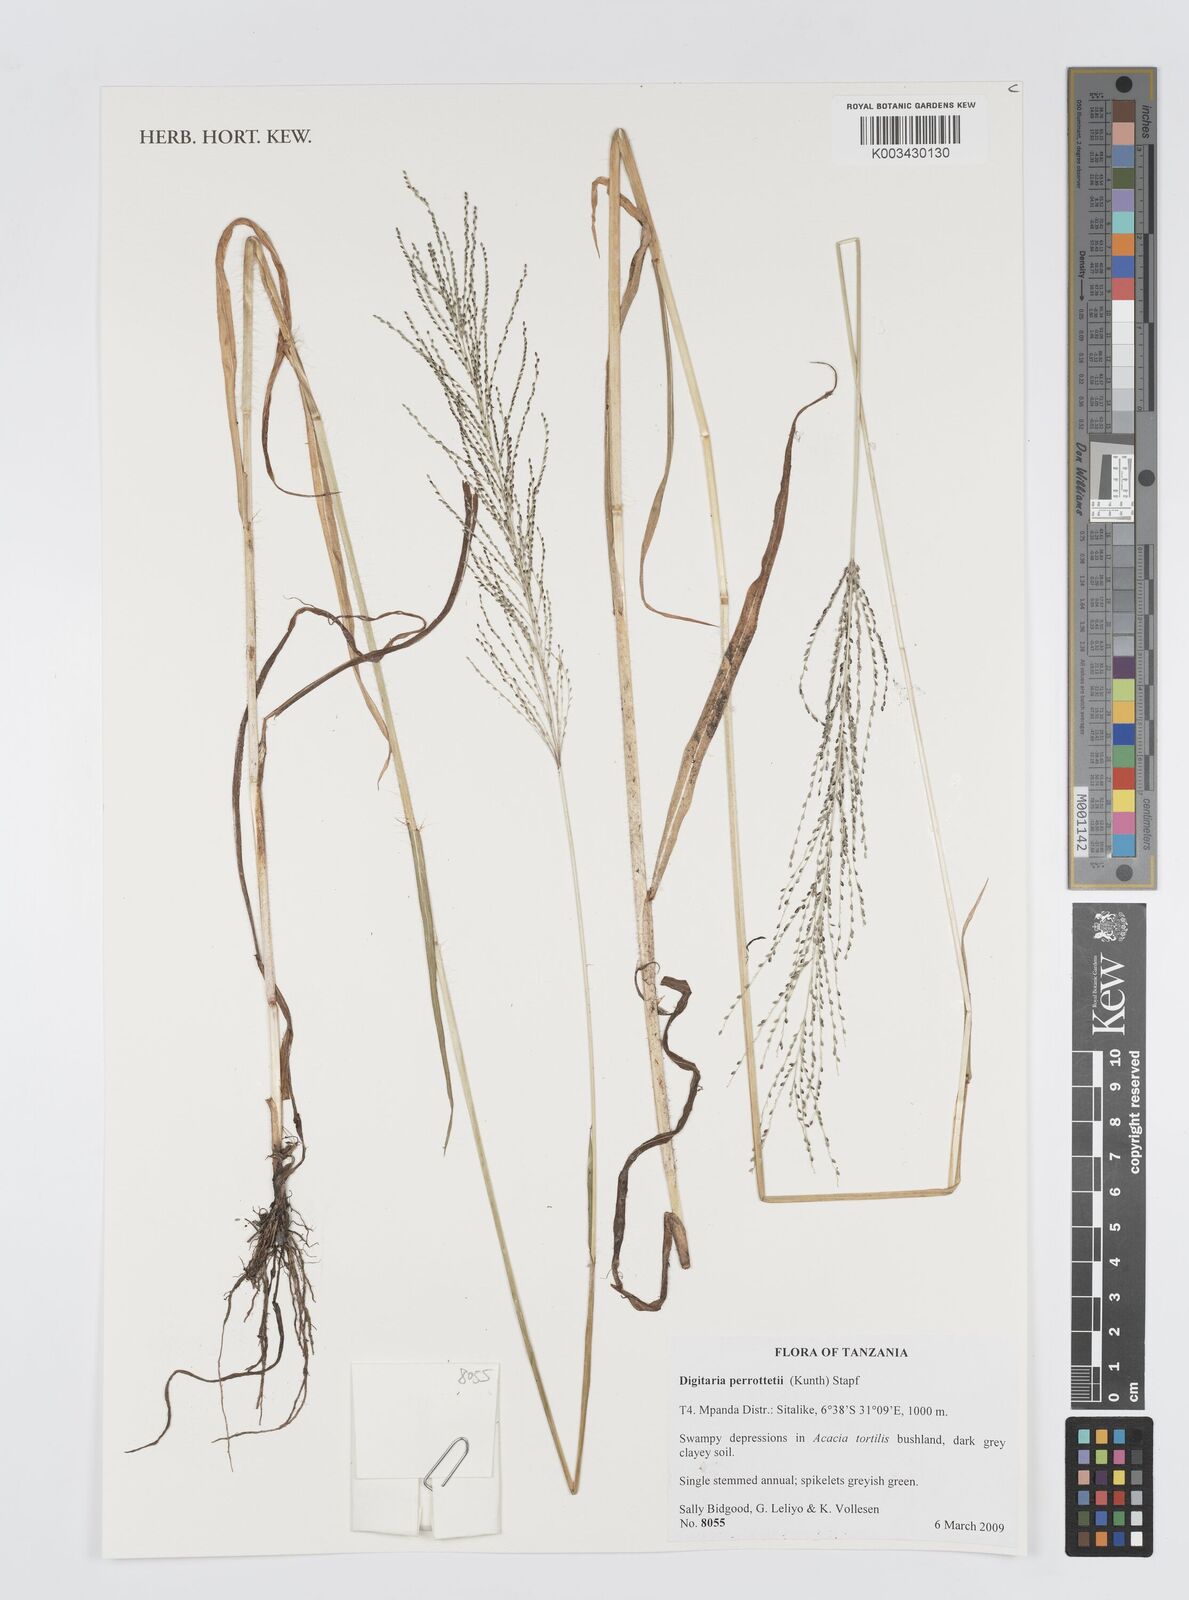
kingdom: Plantae
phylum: Tracheophyta
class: Liliopsida
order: Poales
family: Poaceae
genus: Digitaria
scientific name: Digitaria perrottetii
